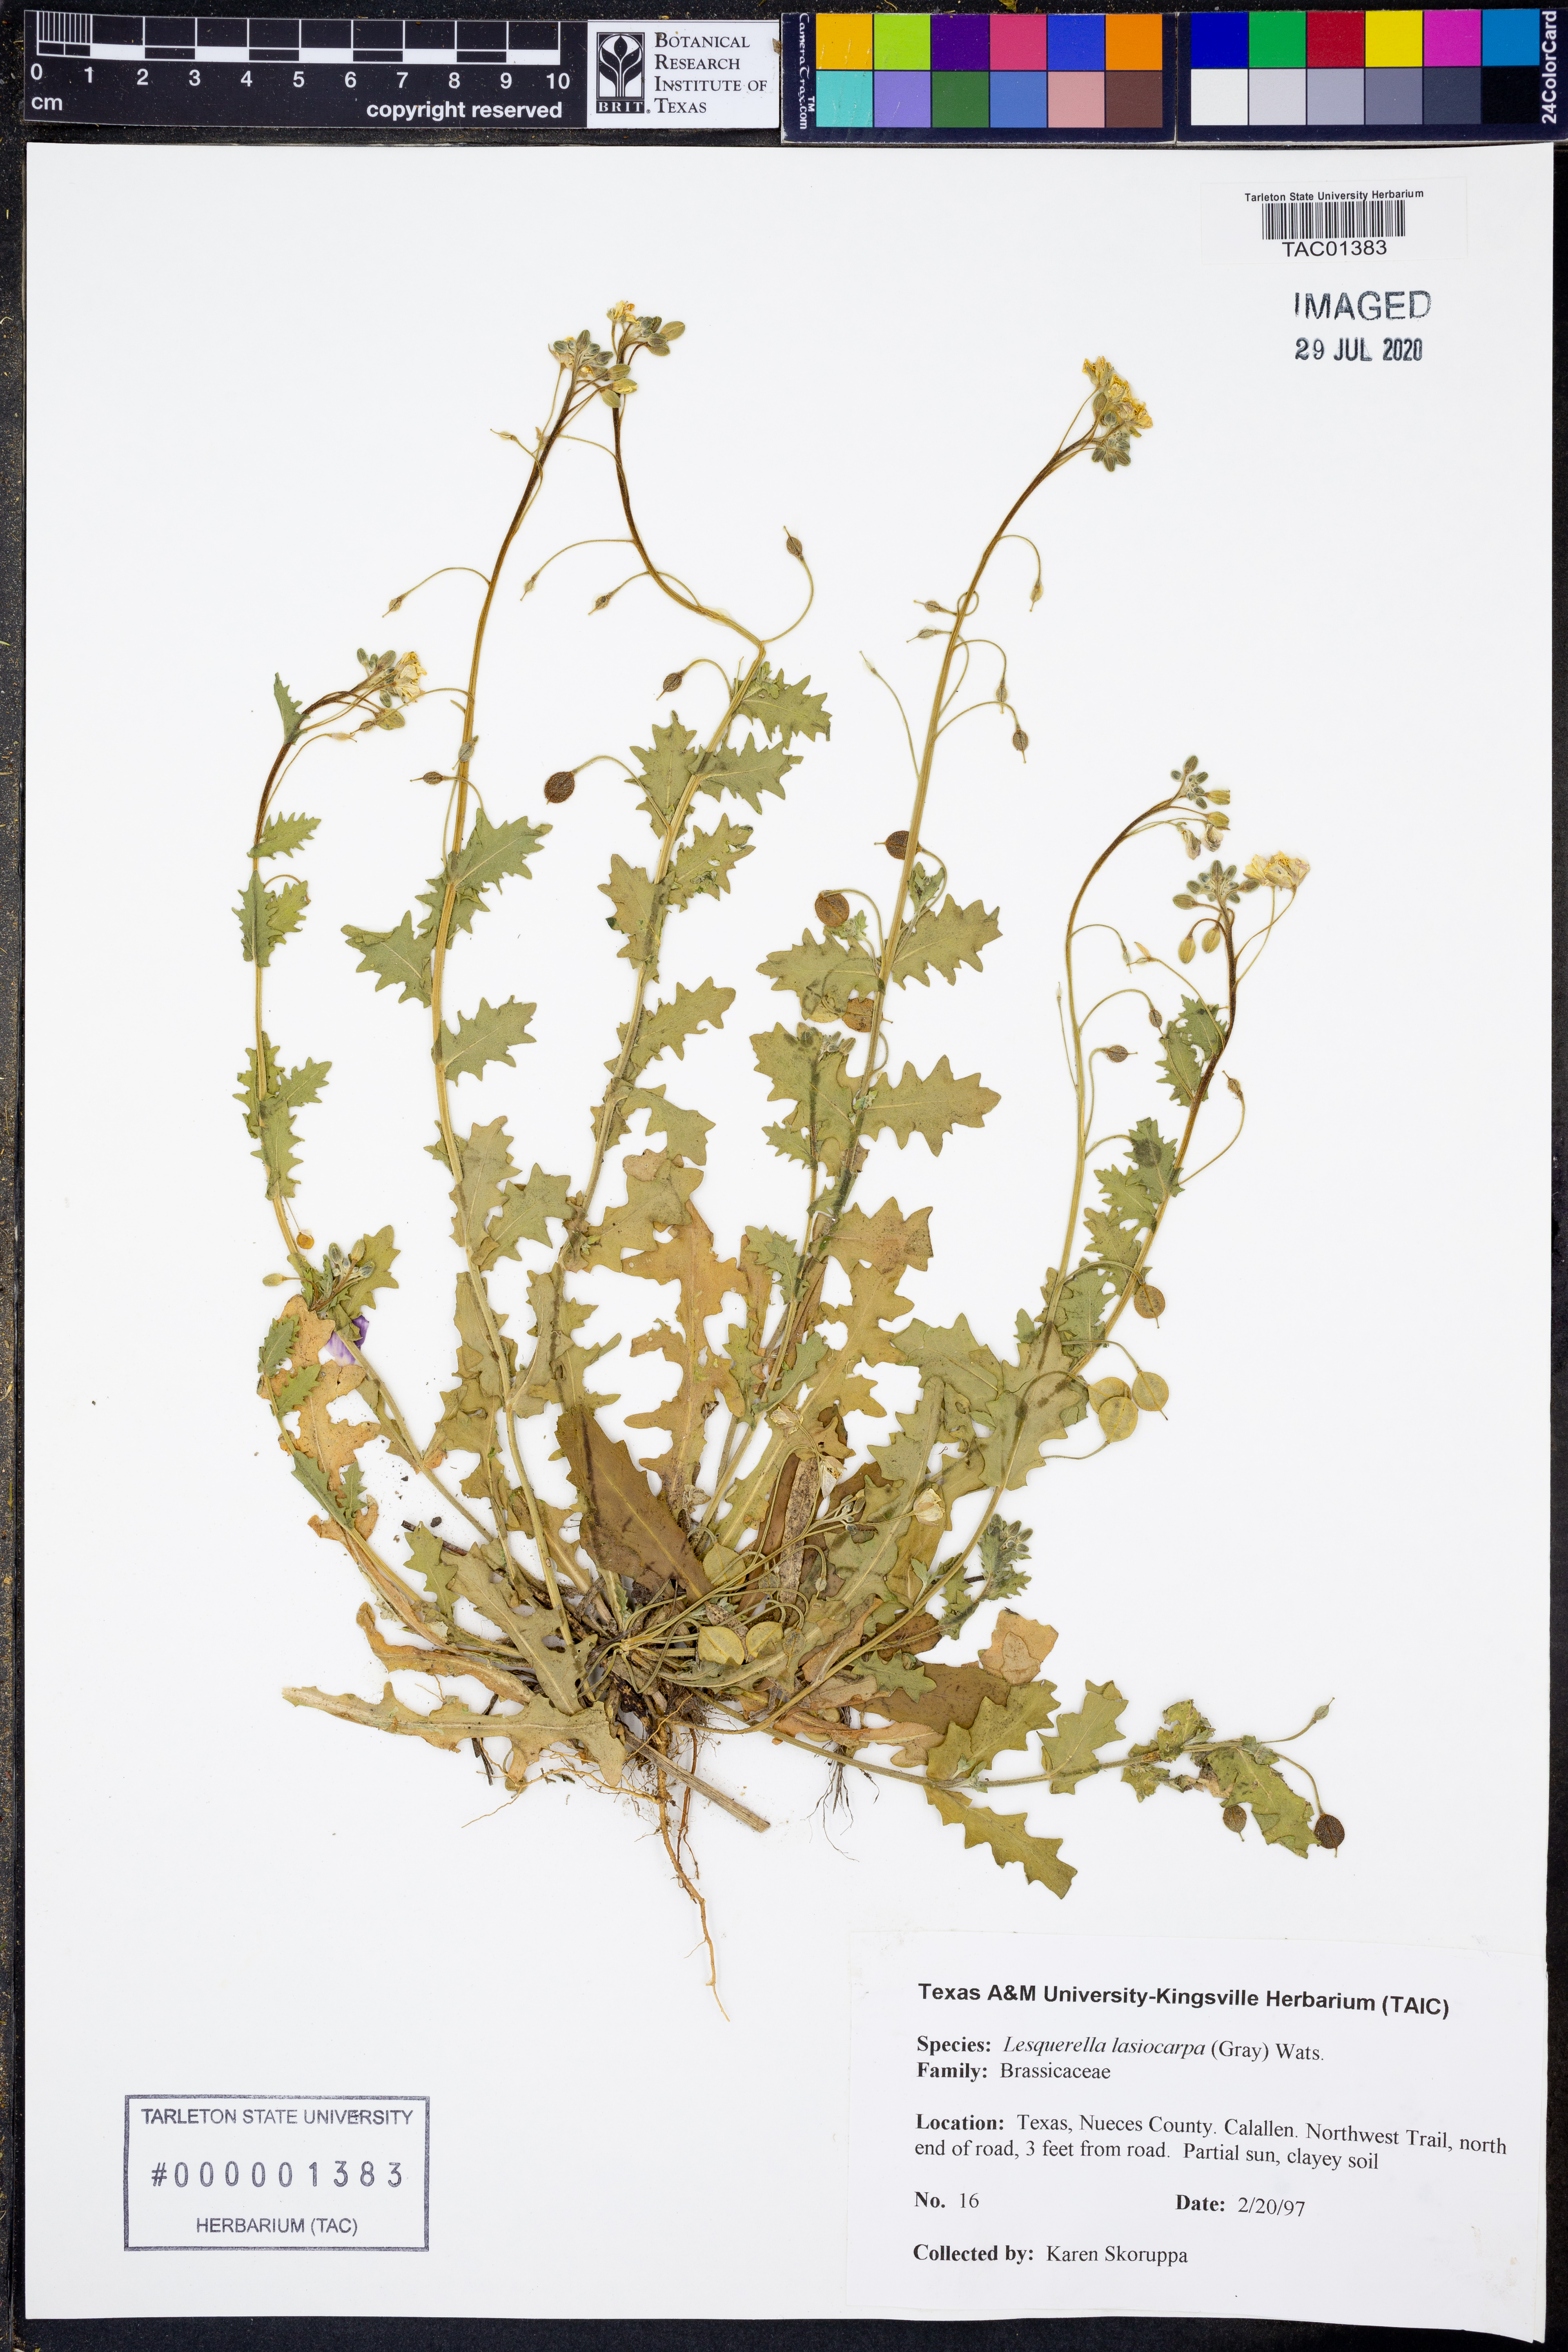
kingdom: Plantae
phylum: Tracheophyta
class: Magnoliopsida
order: Brassicales
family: Brassicaceae
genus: Paysonia
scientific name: Paysonia lasiocarpa
